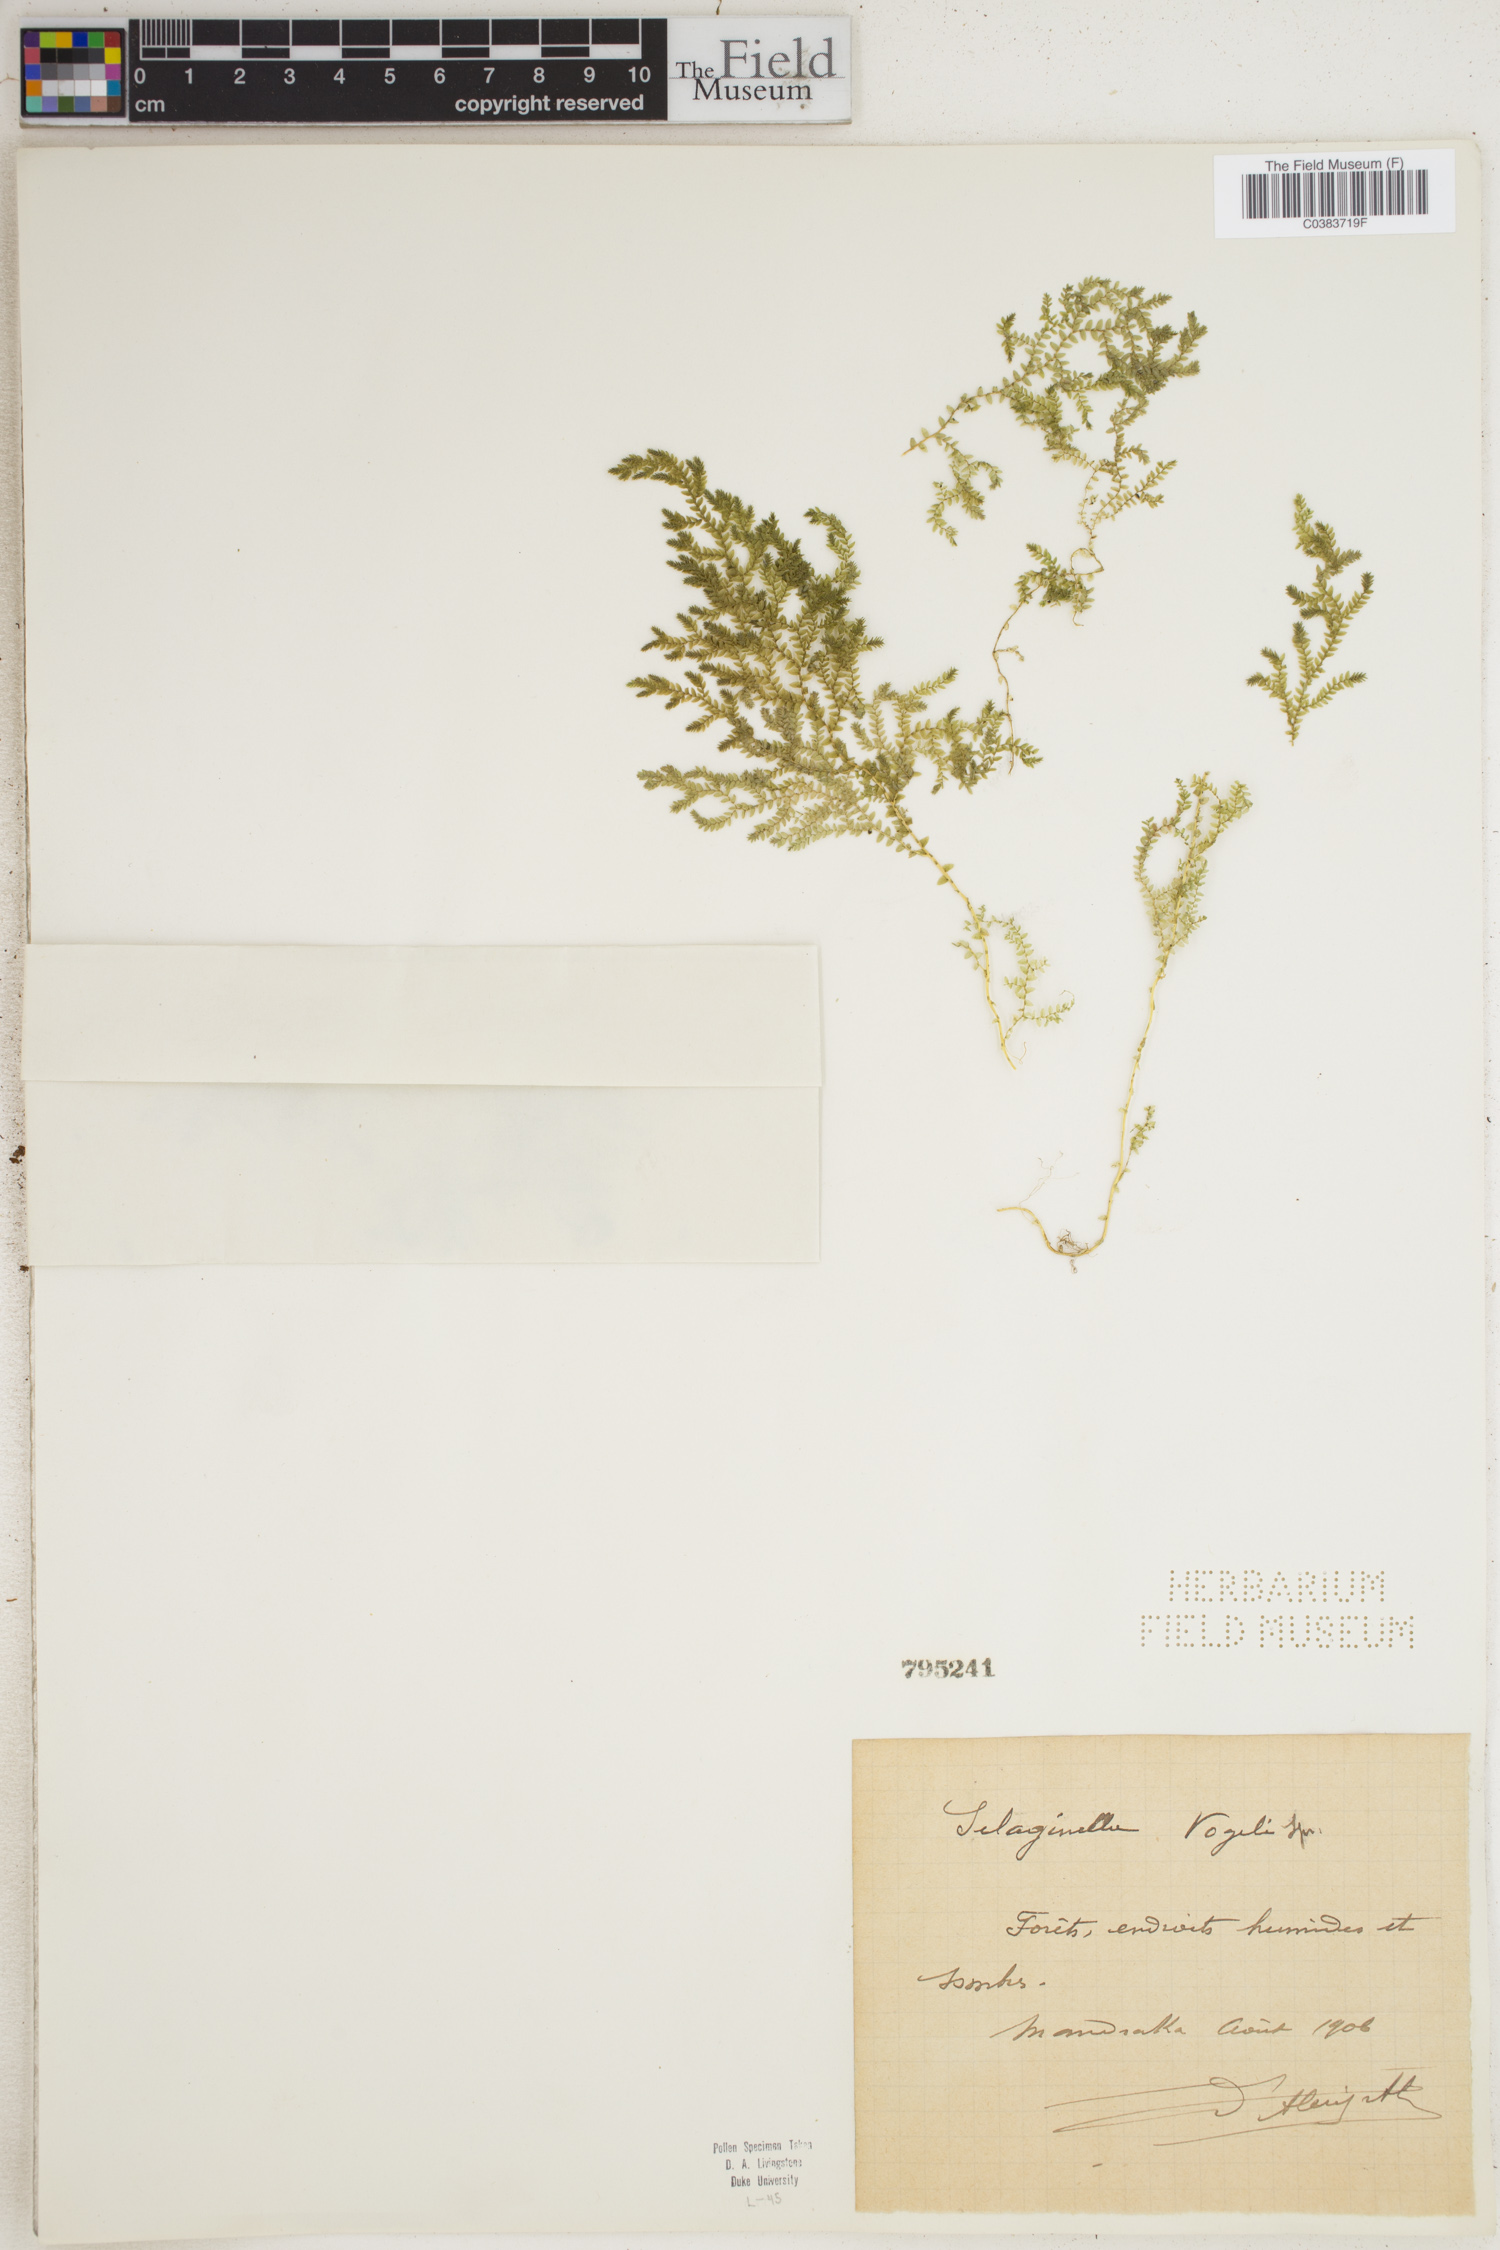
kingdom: Plantae
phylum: Tracheophyta
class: Lycopodiopsida
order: Selaginellales
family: Selaginellaceae
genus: Selaginella
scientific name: Selaginella vogelii
